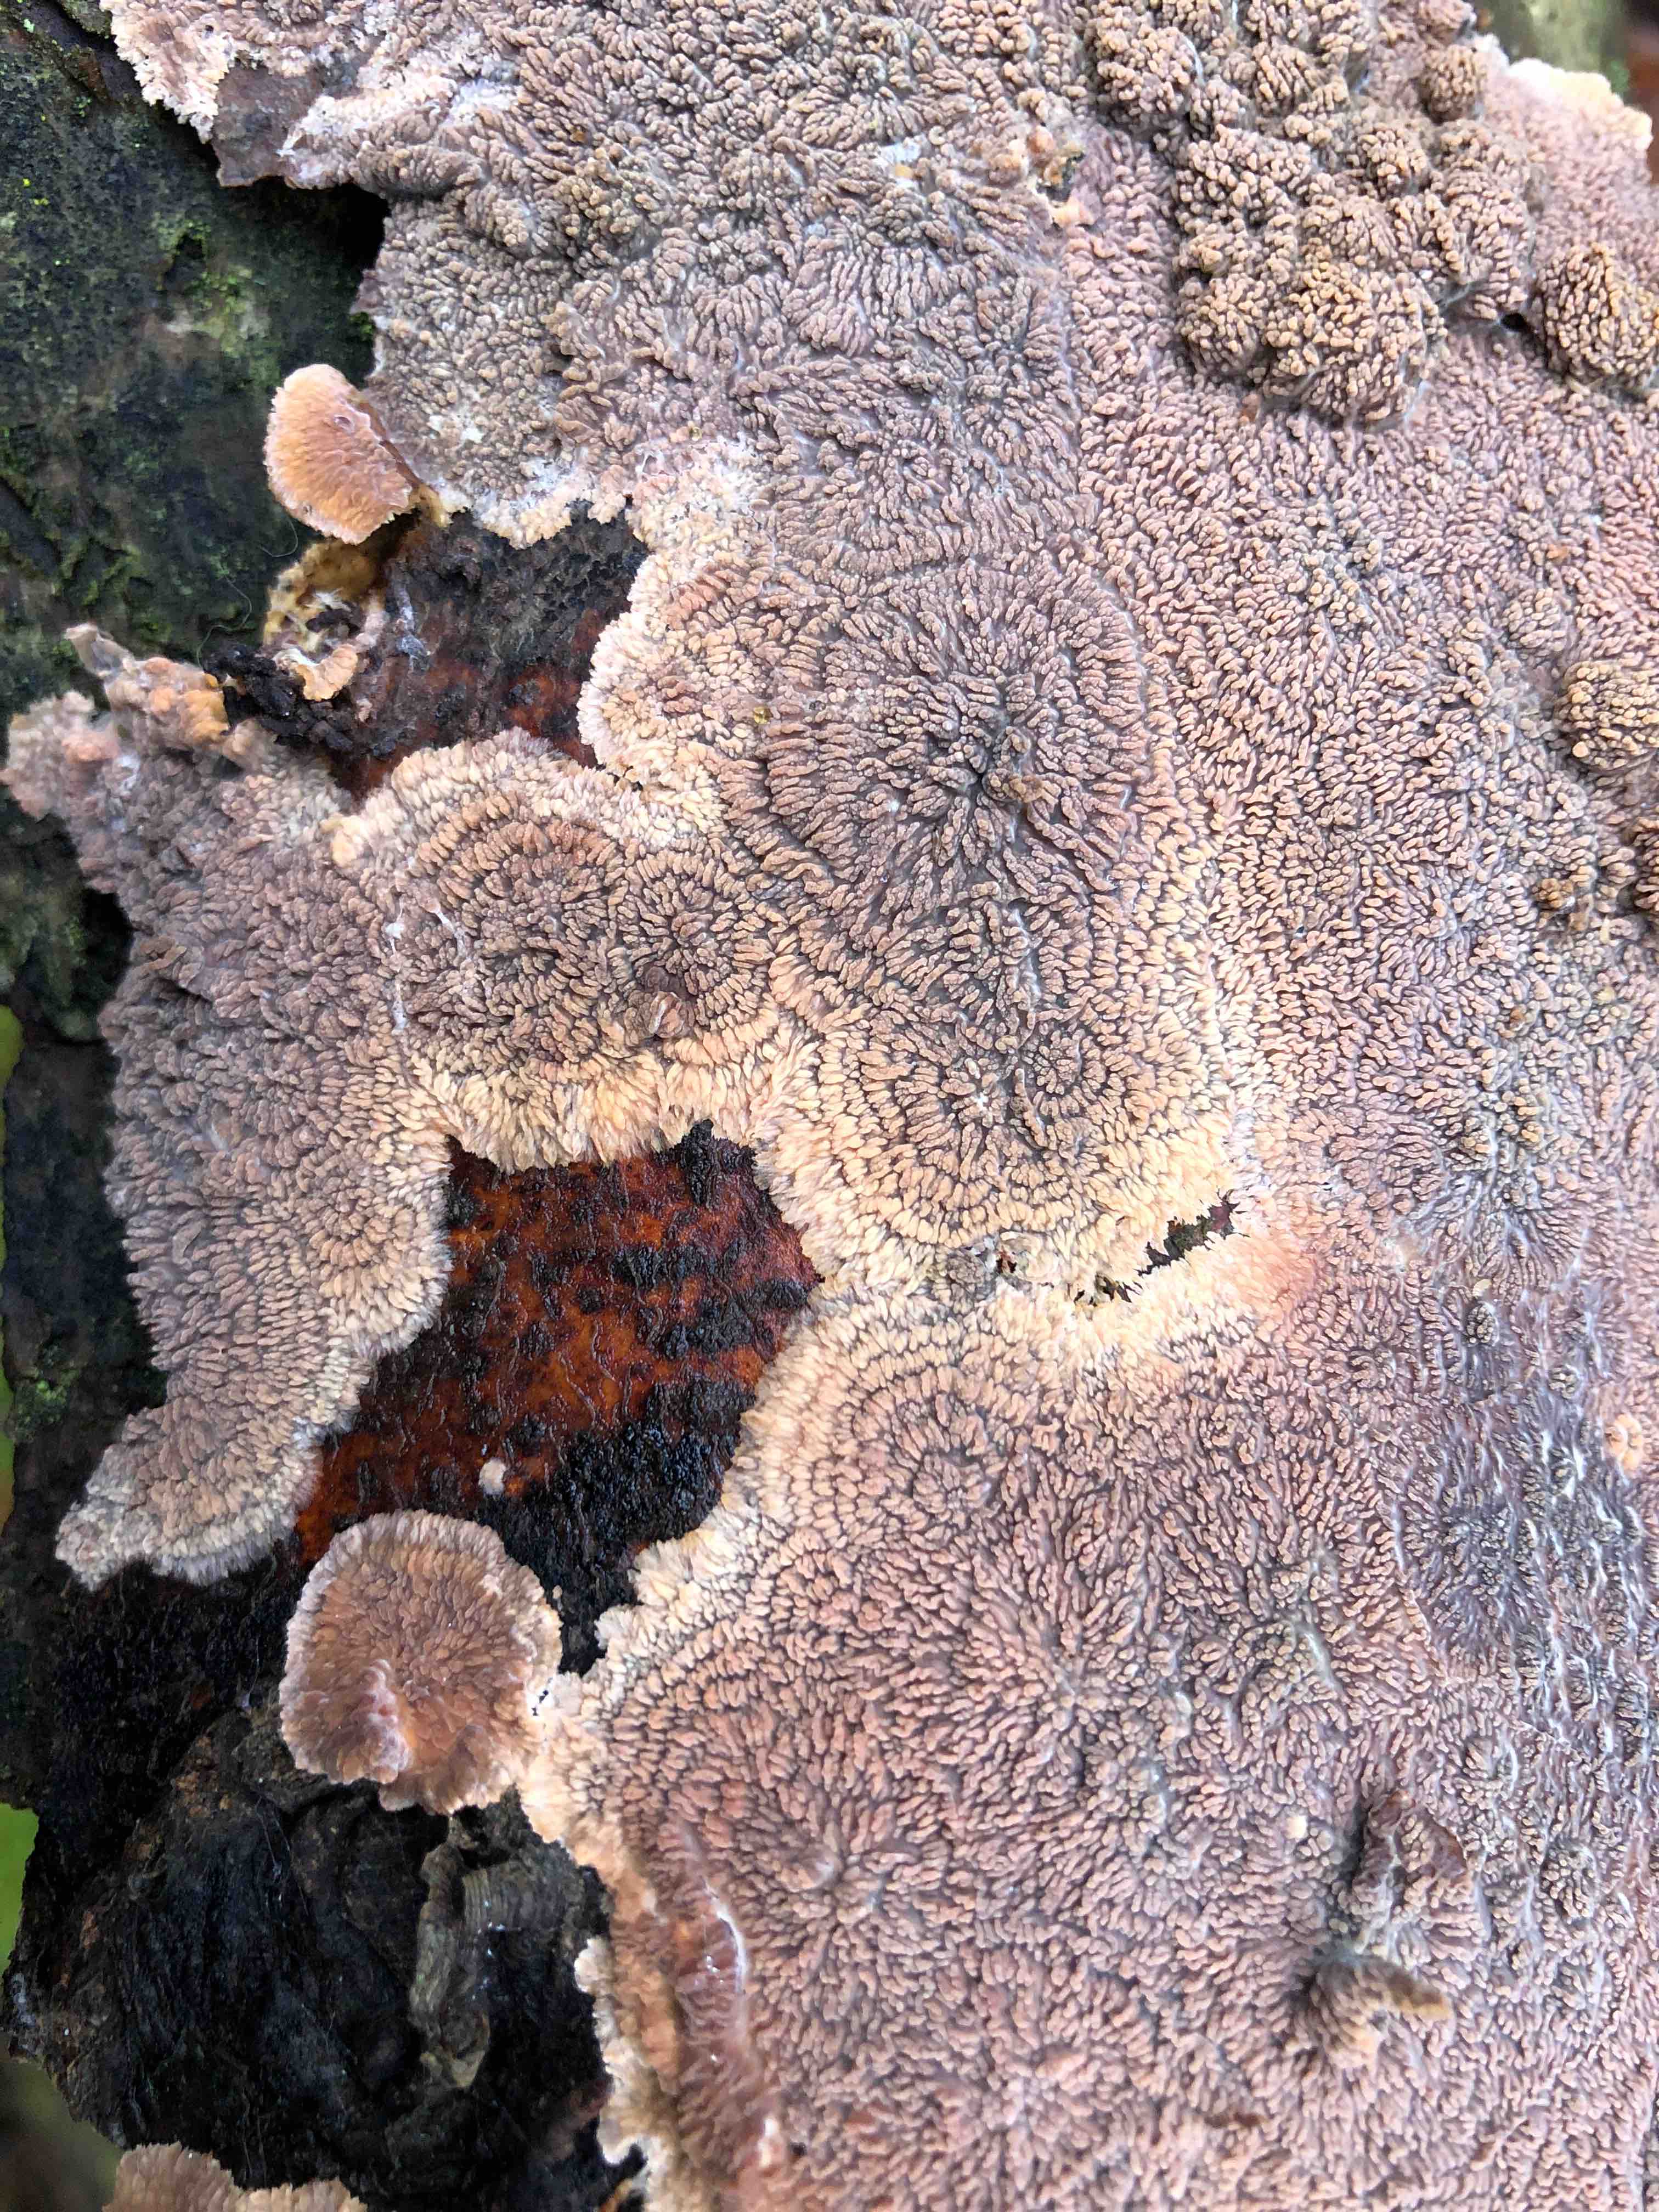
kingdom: Fungi
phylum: Basidiomycota
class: Agaricomycetes
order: Polyporales
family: Meruliaceae
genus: Phlebia
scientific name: Phlebia radiata
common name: stråle-åresvamp
